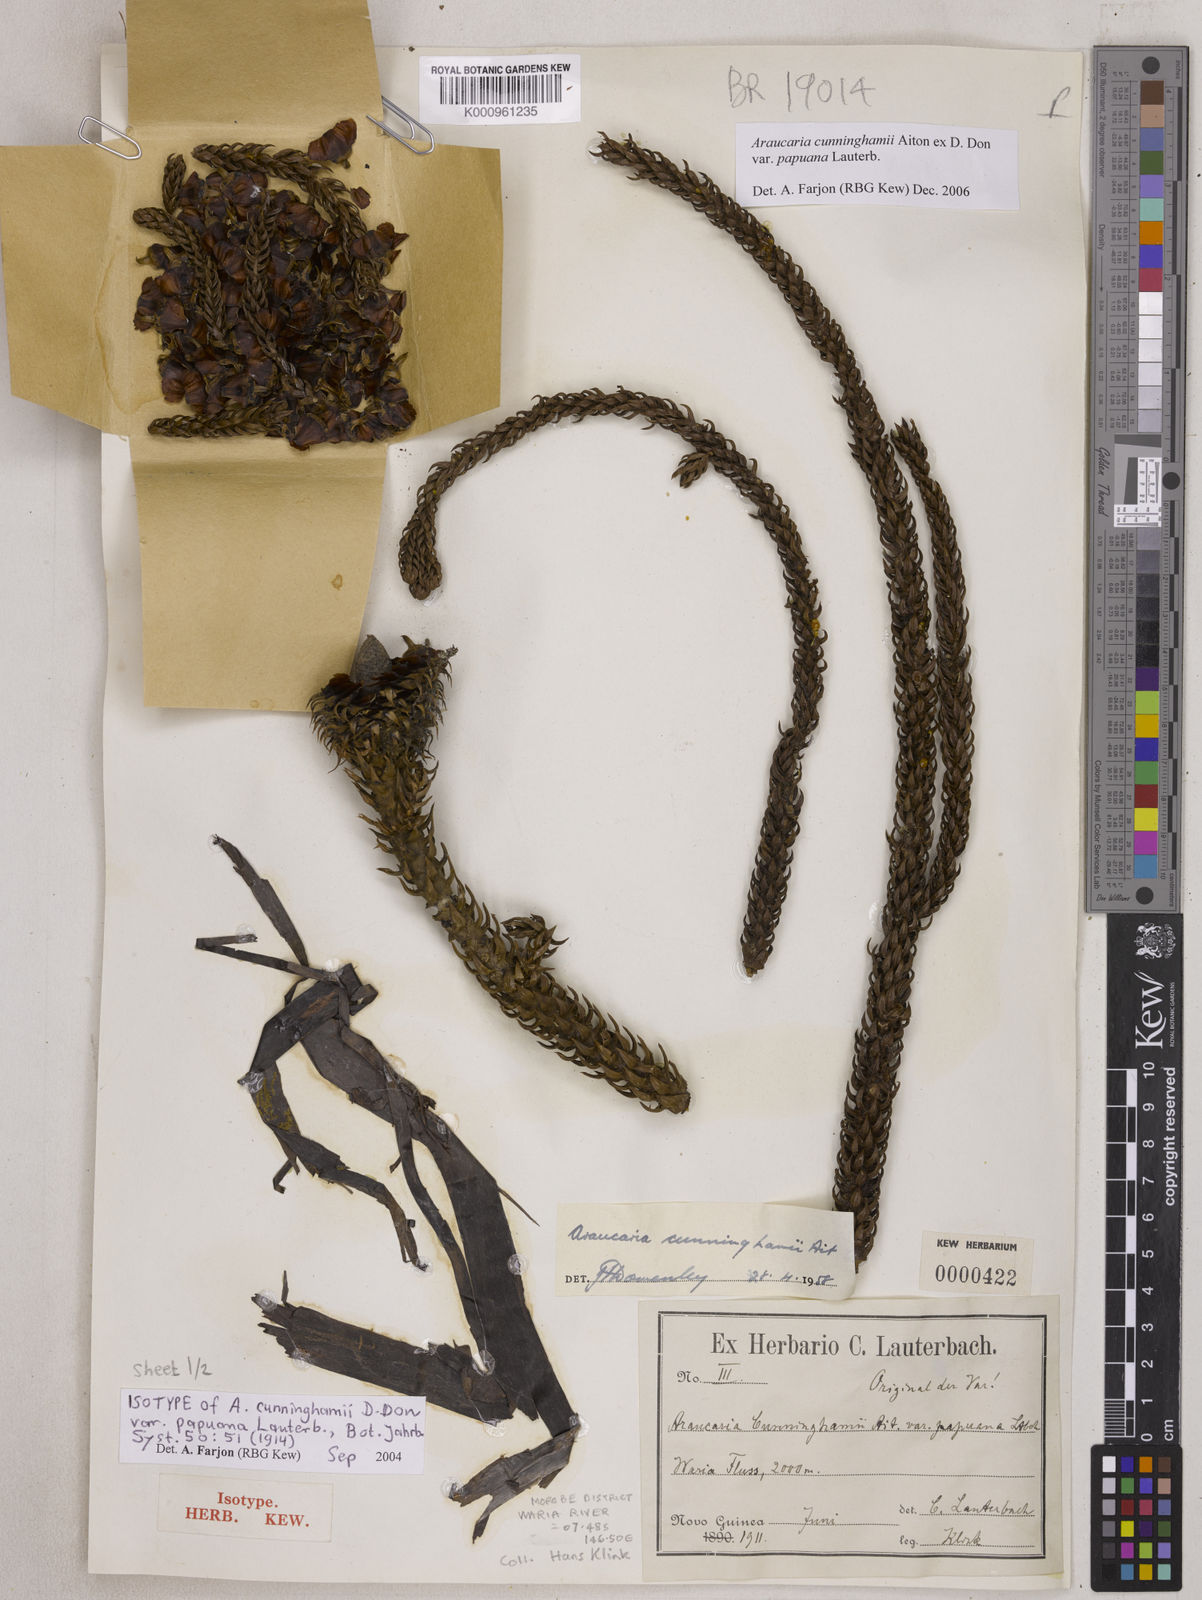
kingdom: Plantae
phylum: Tracheophyta
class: Pinopsida
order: Pinales
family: Araucariaceae
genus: Araucaria
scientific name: Araucaria
